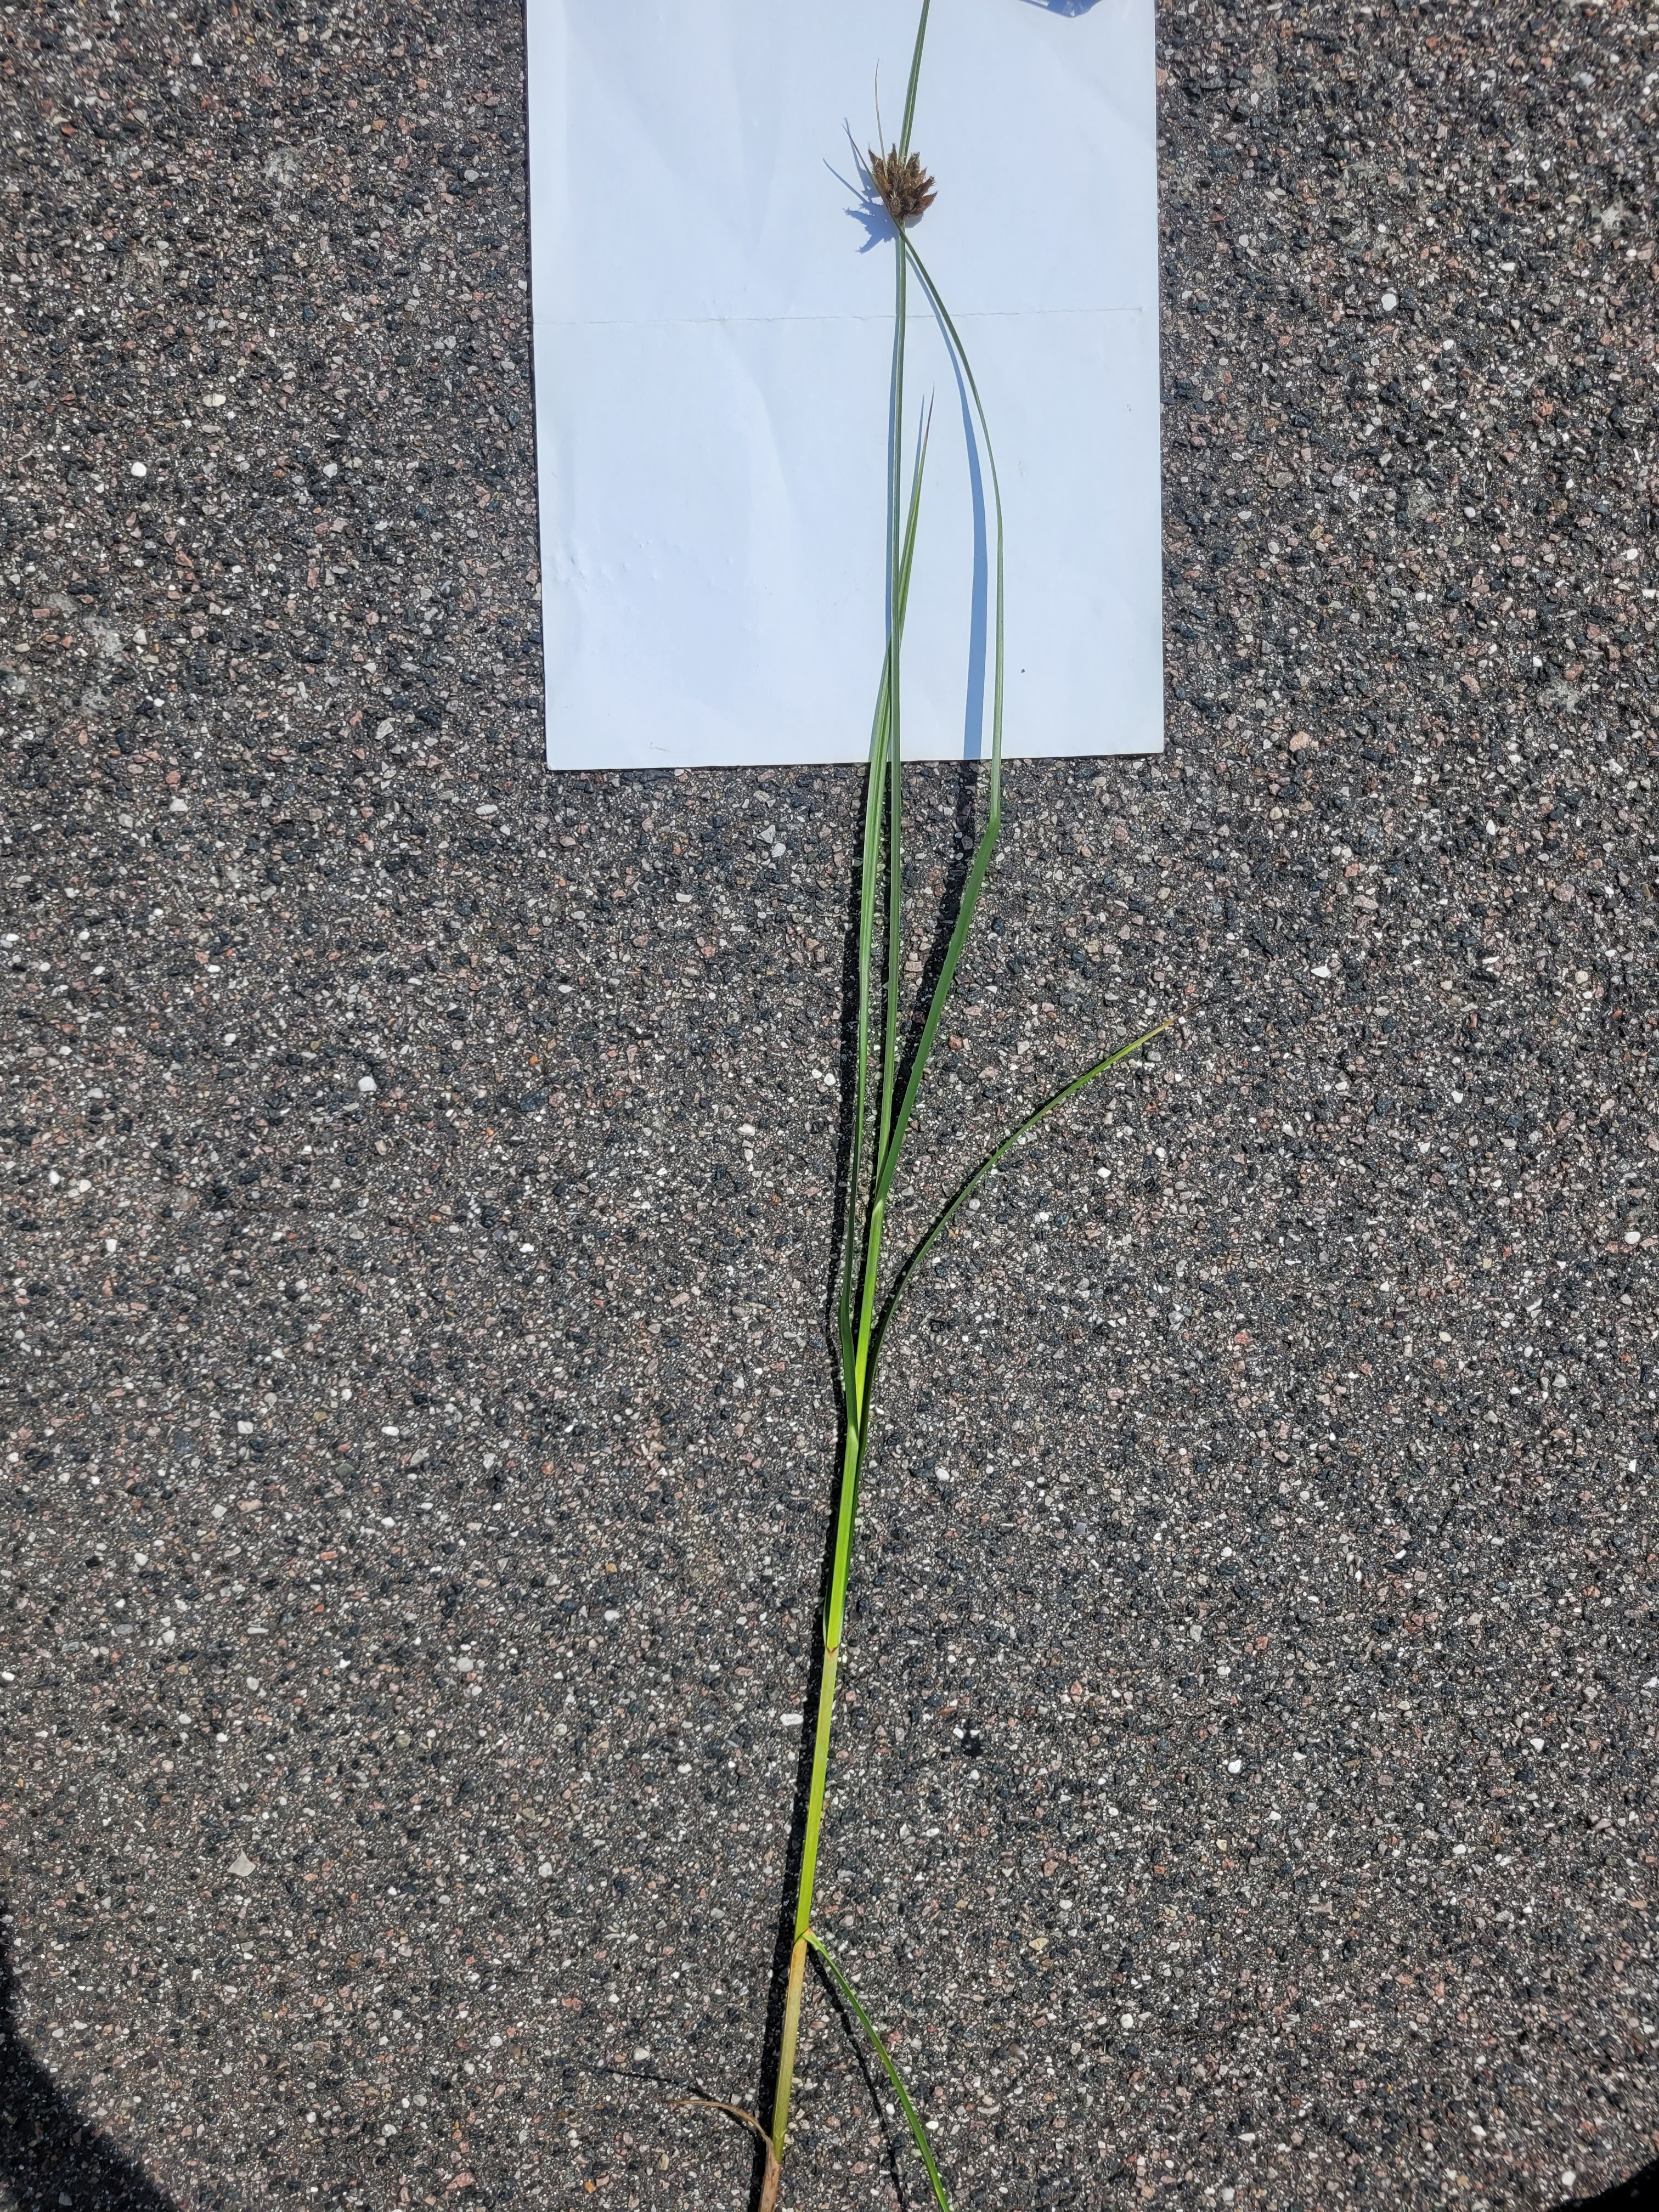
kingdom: Plantae
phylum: Tracheophyta
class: Liliopsida
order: Poales
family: Cyperaceae
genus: Bolboschoenus
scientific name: Bolboschoenus maritimus
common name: Strand-kogleaks
